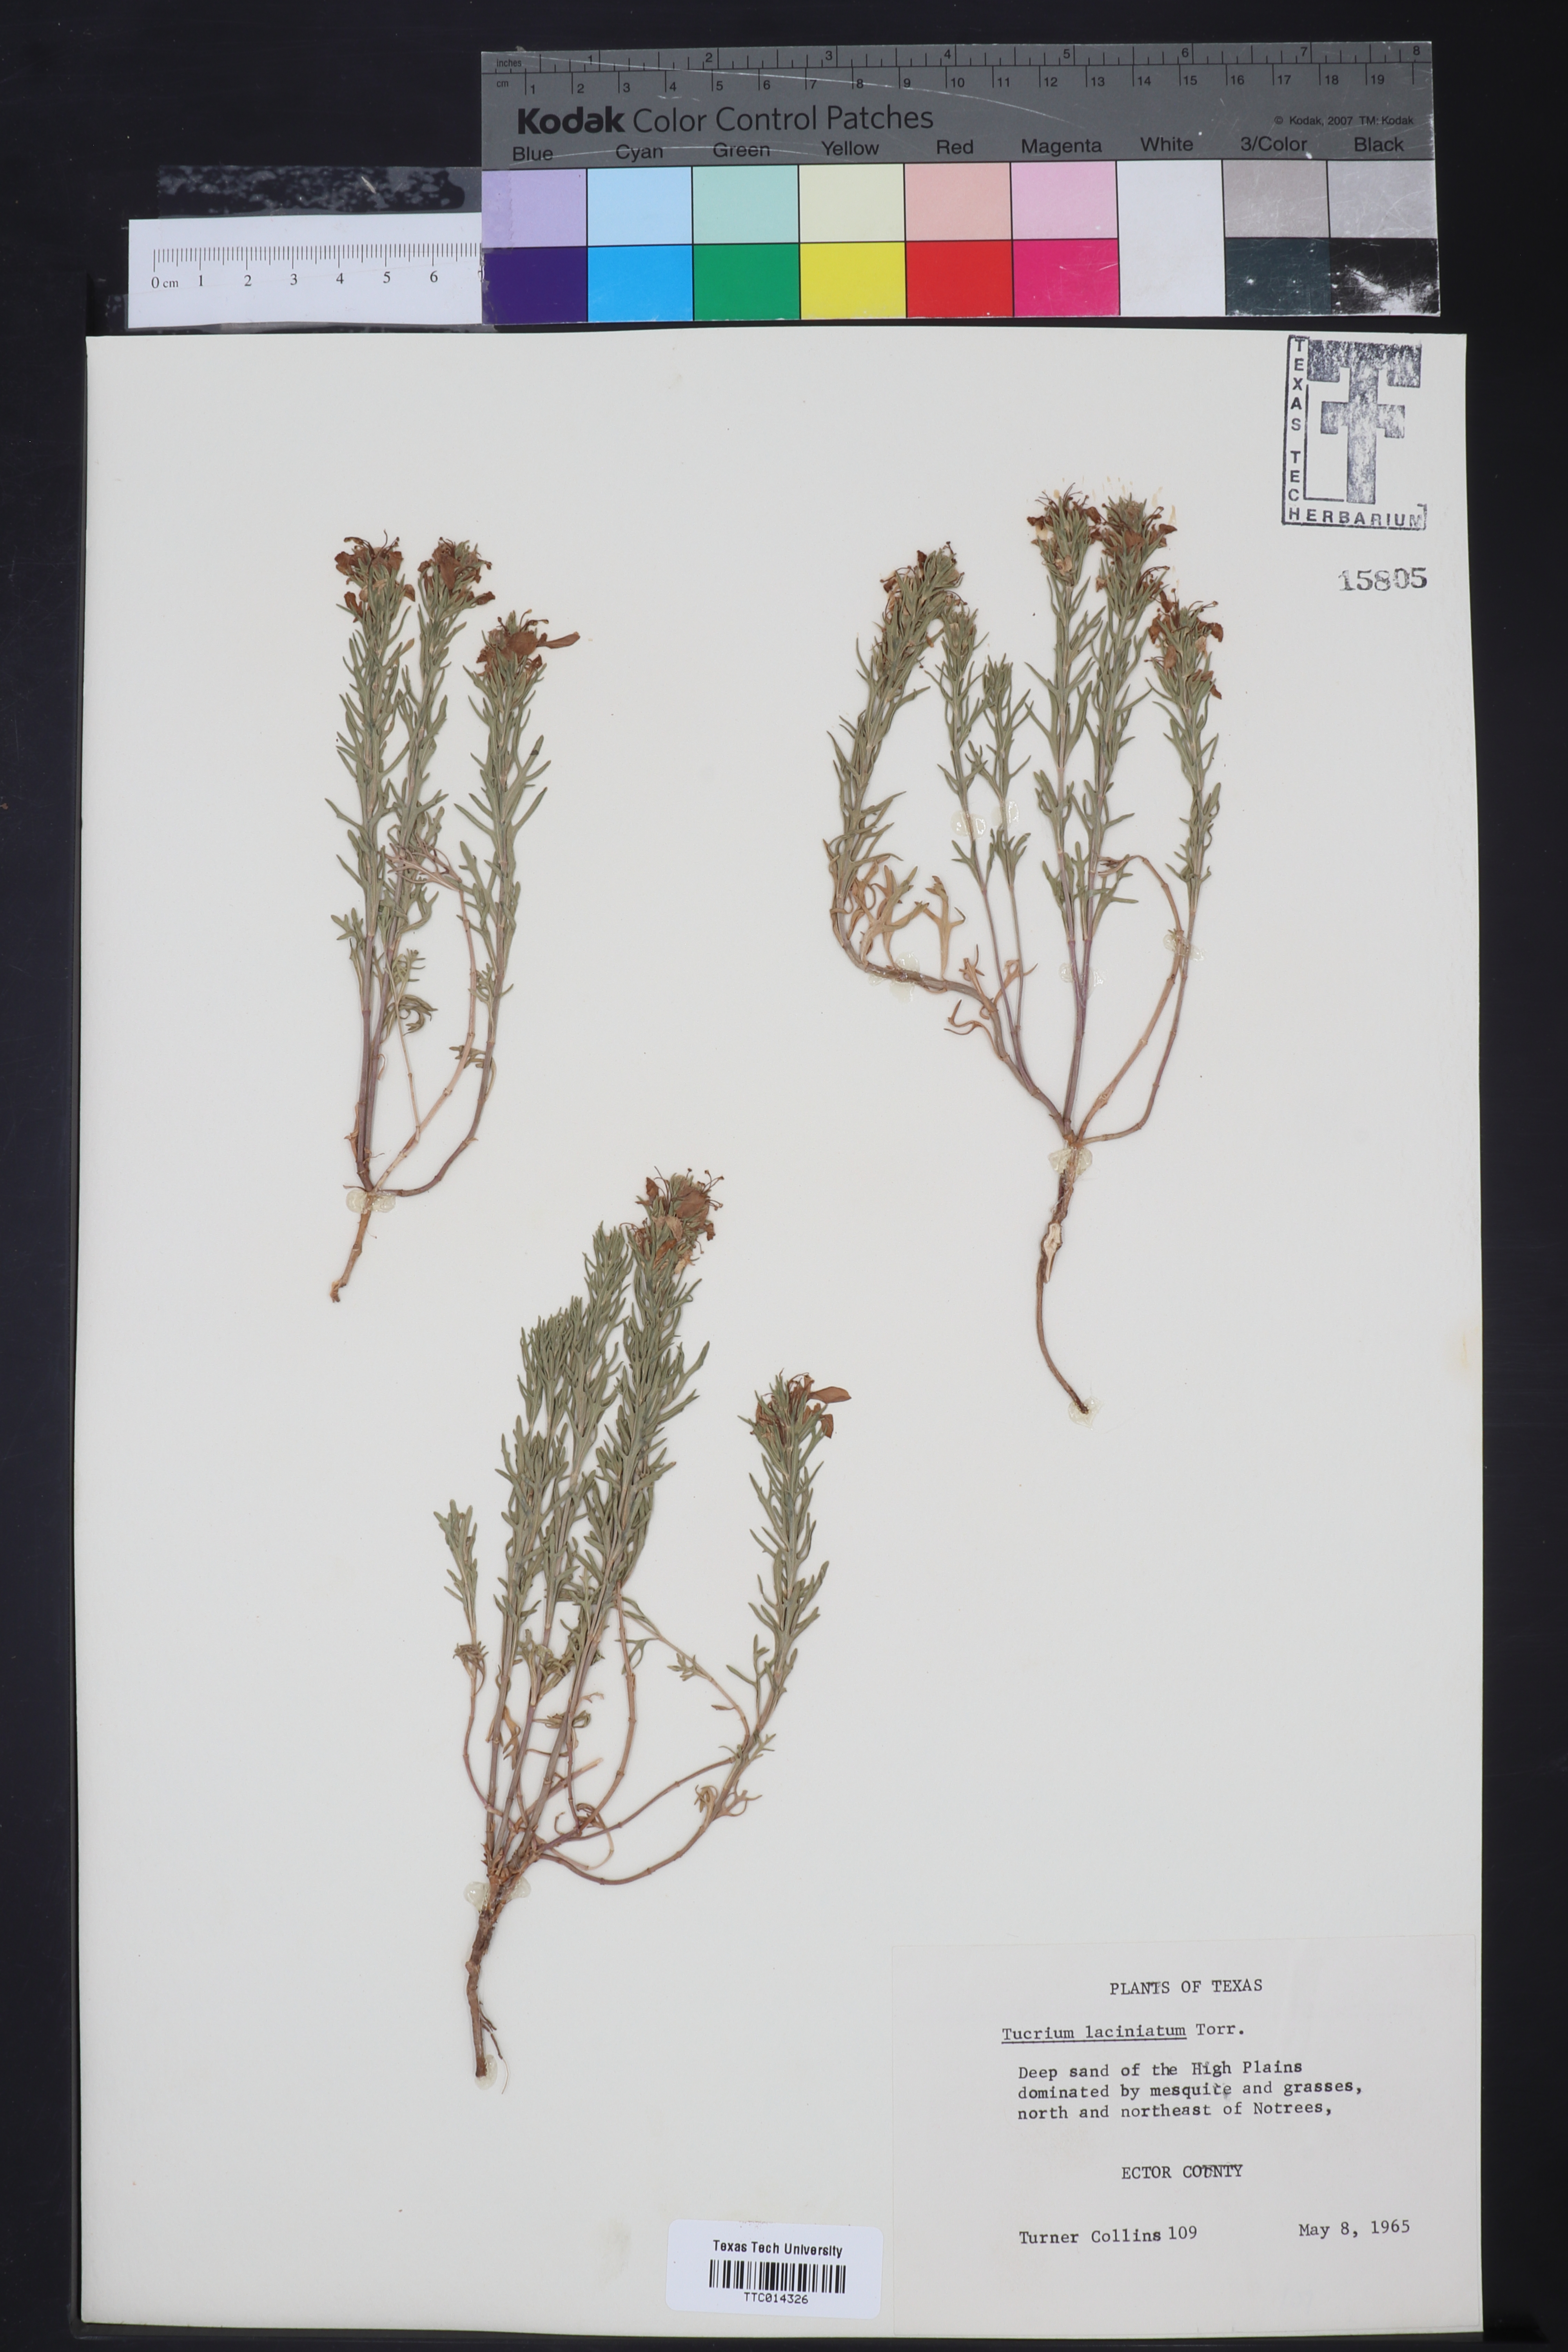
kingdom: Plantae
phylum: Tracheophyta
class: Magnoliopsida
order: Lamiales
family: Lamiaceae
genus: Teucrium
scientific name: Teucrium laciniatum
